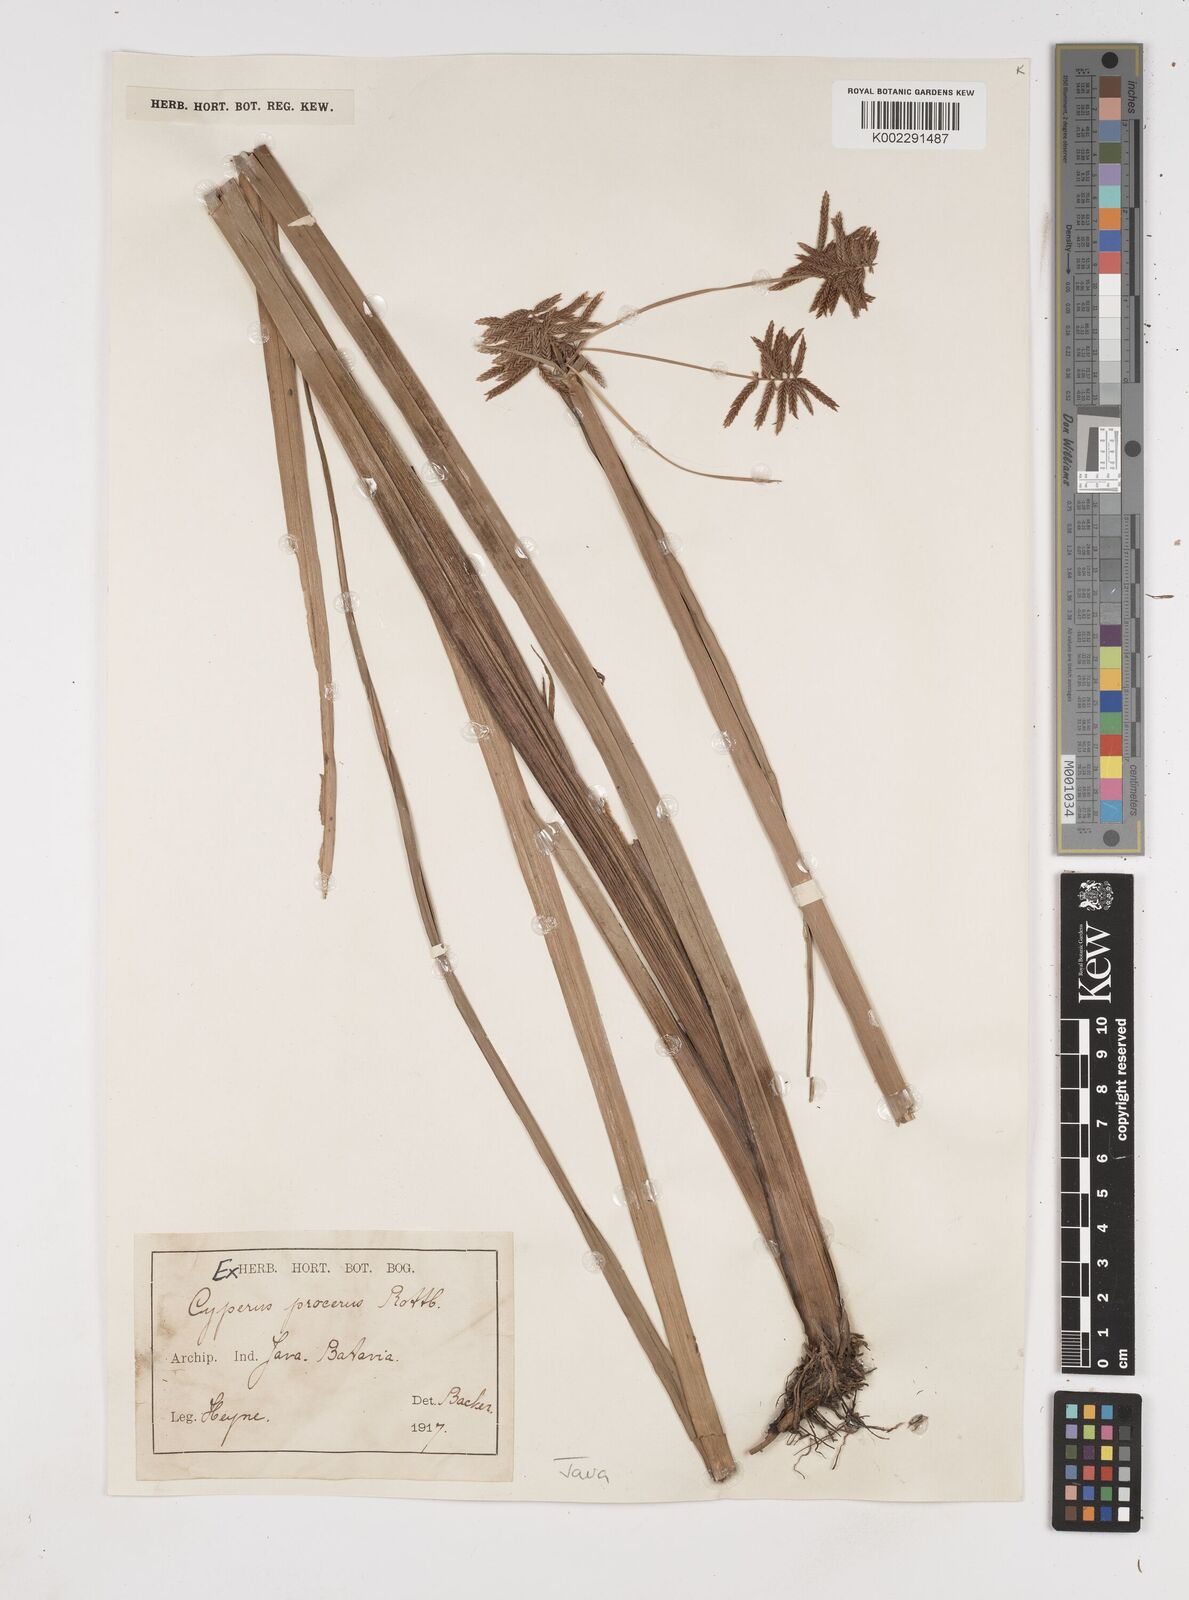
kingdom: Plantae
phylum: Tracheophyta
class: Liliopsida
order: Poales
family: Cyperaceae
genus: Cyperus
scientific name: Cyperus procerus
